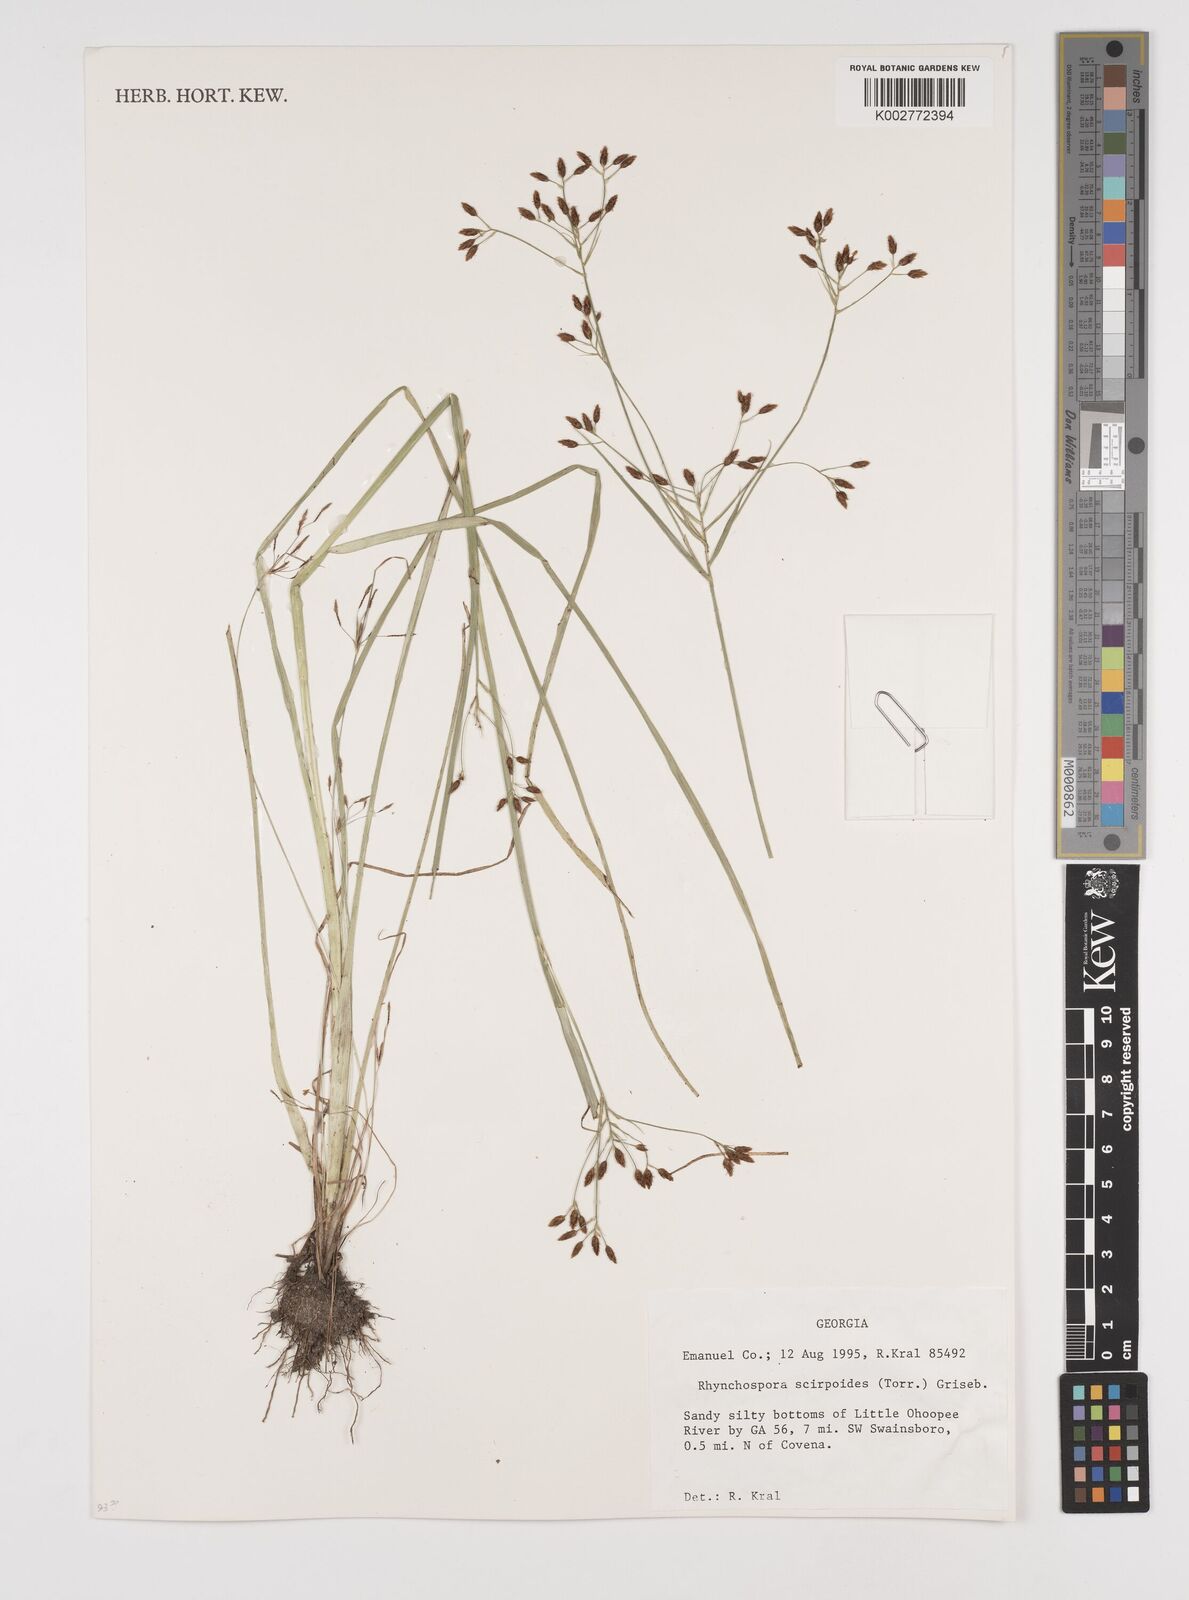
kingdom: Plantae
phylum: Tracheophyta
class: Liliopsida
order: Poales
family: Cyperaceae
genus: Rhynchospora
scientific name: Rhynchospora scirpoides
